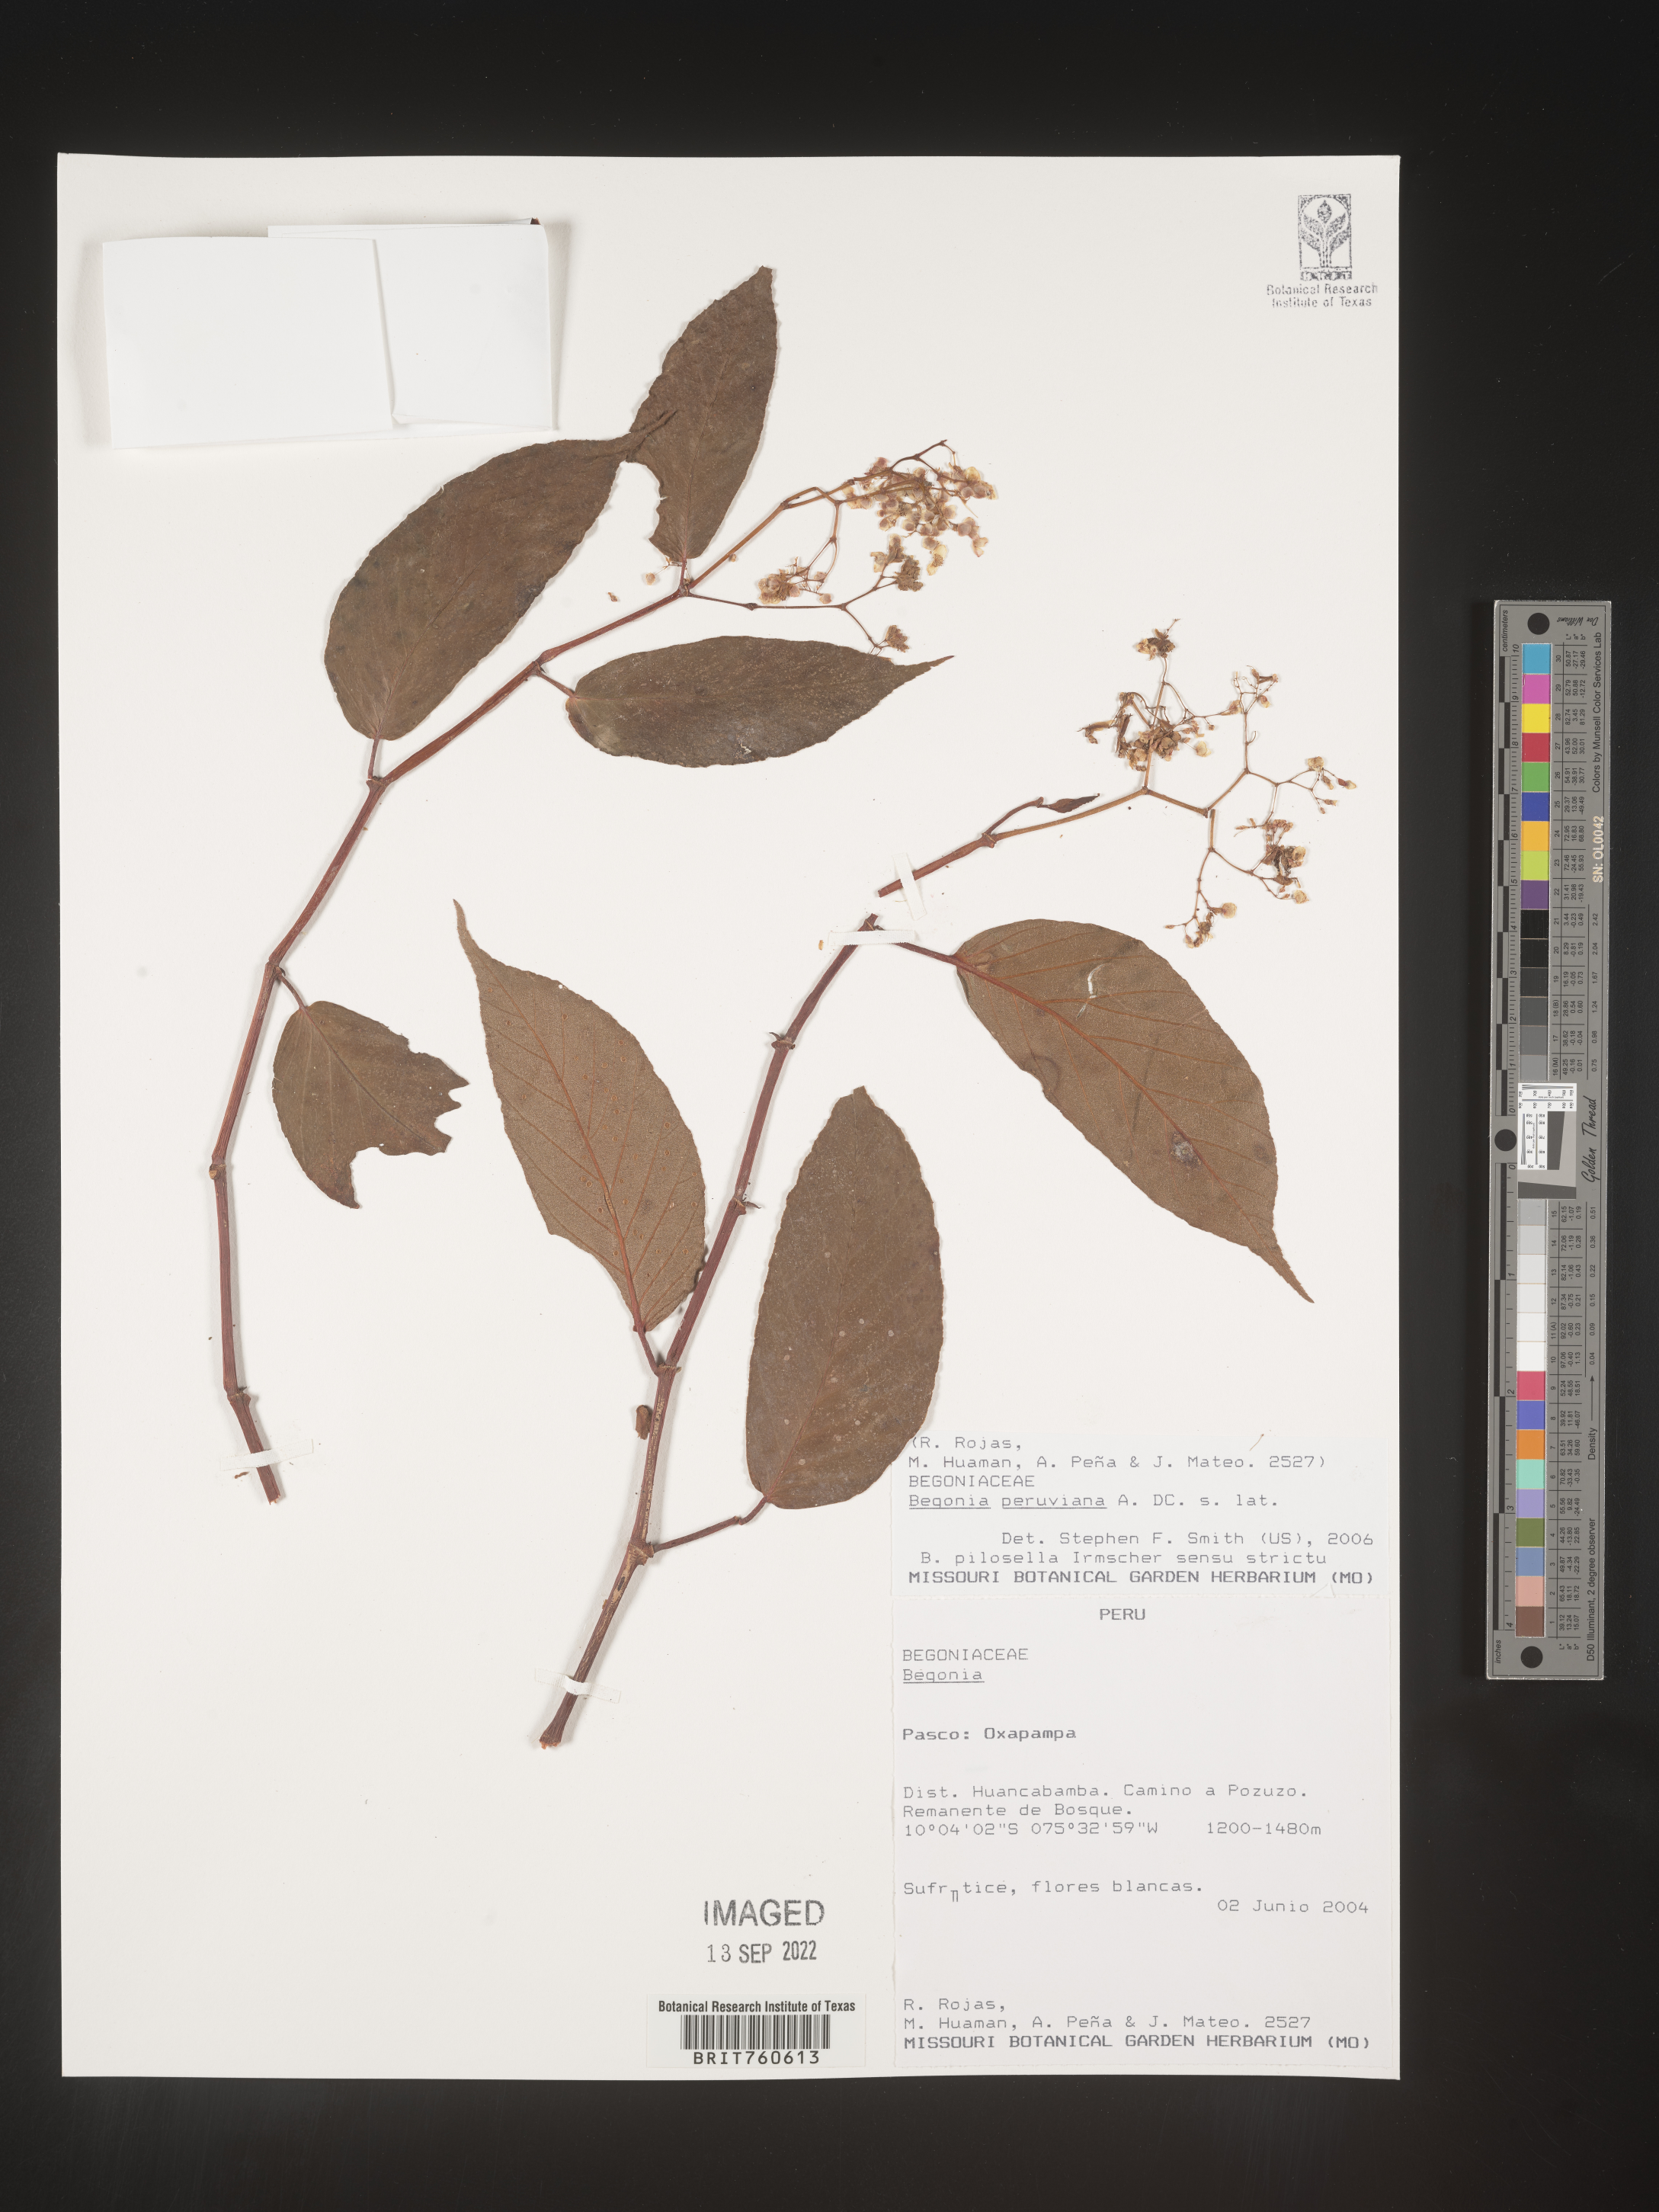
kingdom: Plantae
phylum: Tracheophyta
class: Magnoliopsida
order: Cucurbitales
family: Begoniaceae
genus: Begonia
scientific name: Begonia
